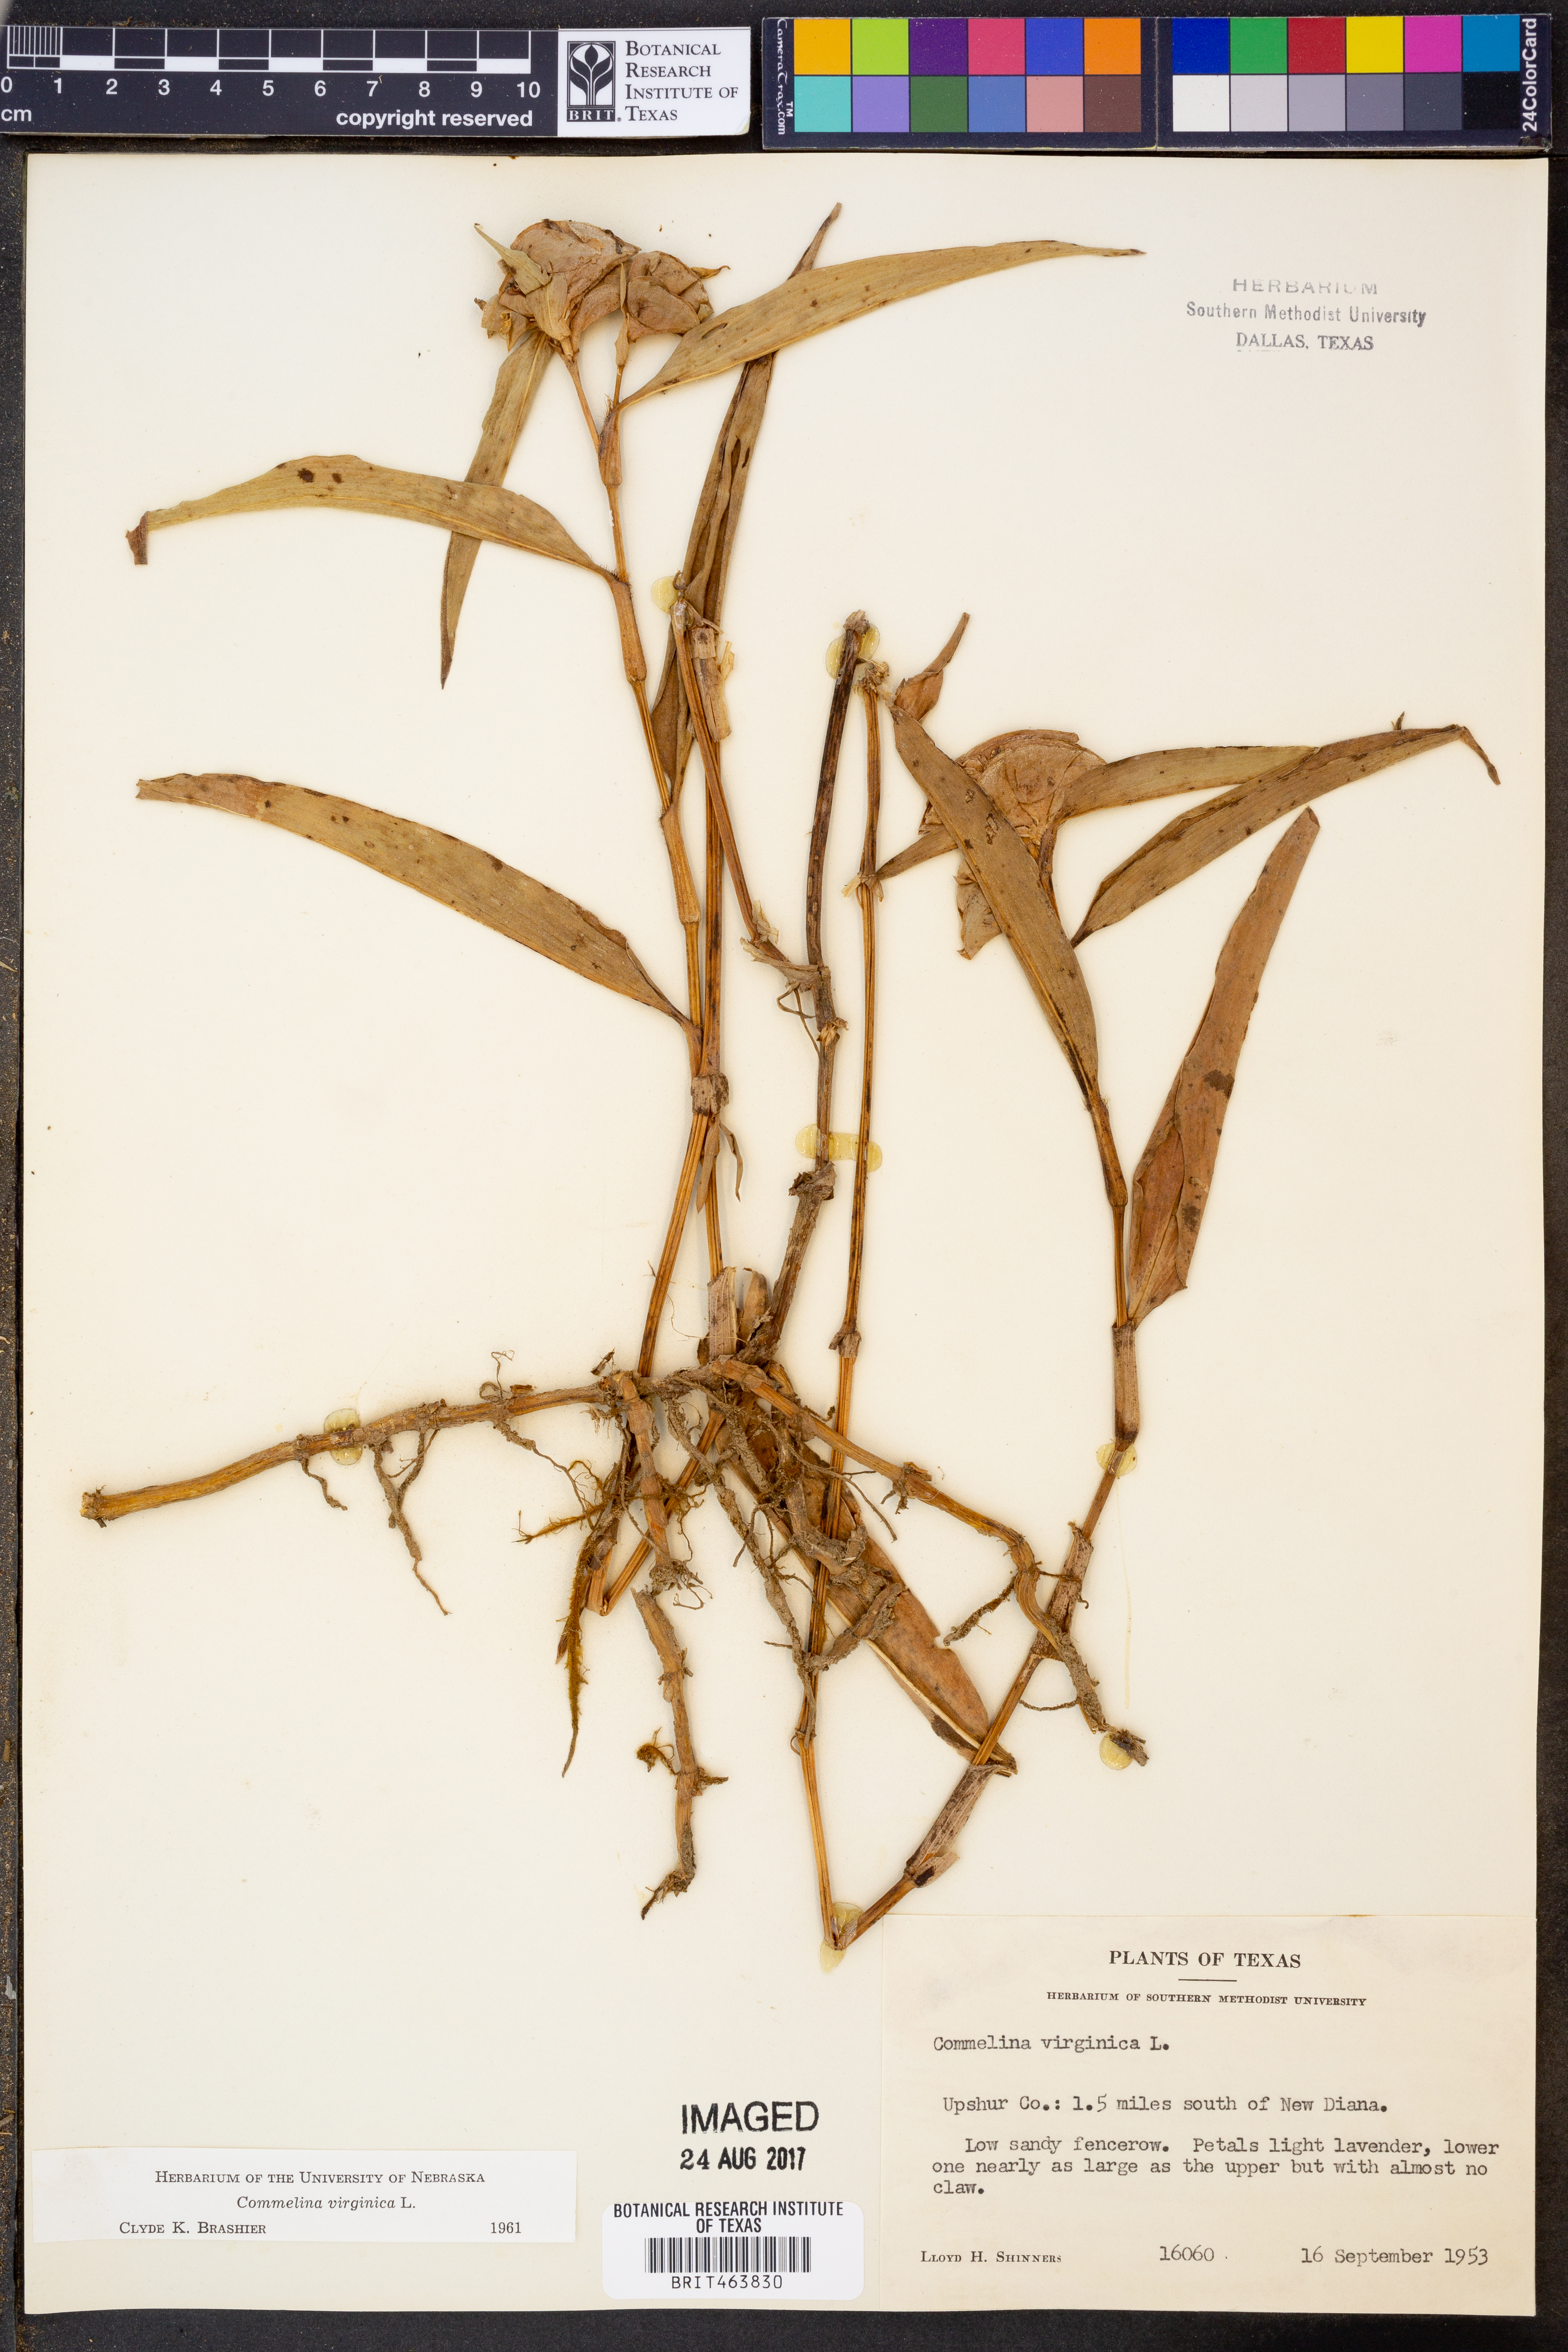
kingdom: Plantae
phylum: Tracheophyta
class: Liliopsida
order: Commelinales
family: Commelinaceae
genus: Commelina
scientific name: Commelina virginica
